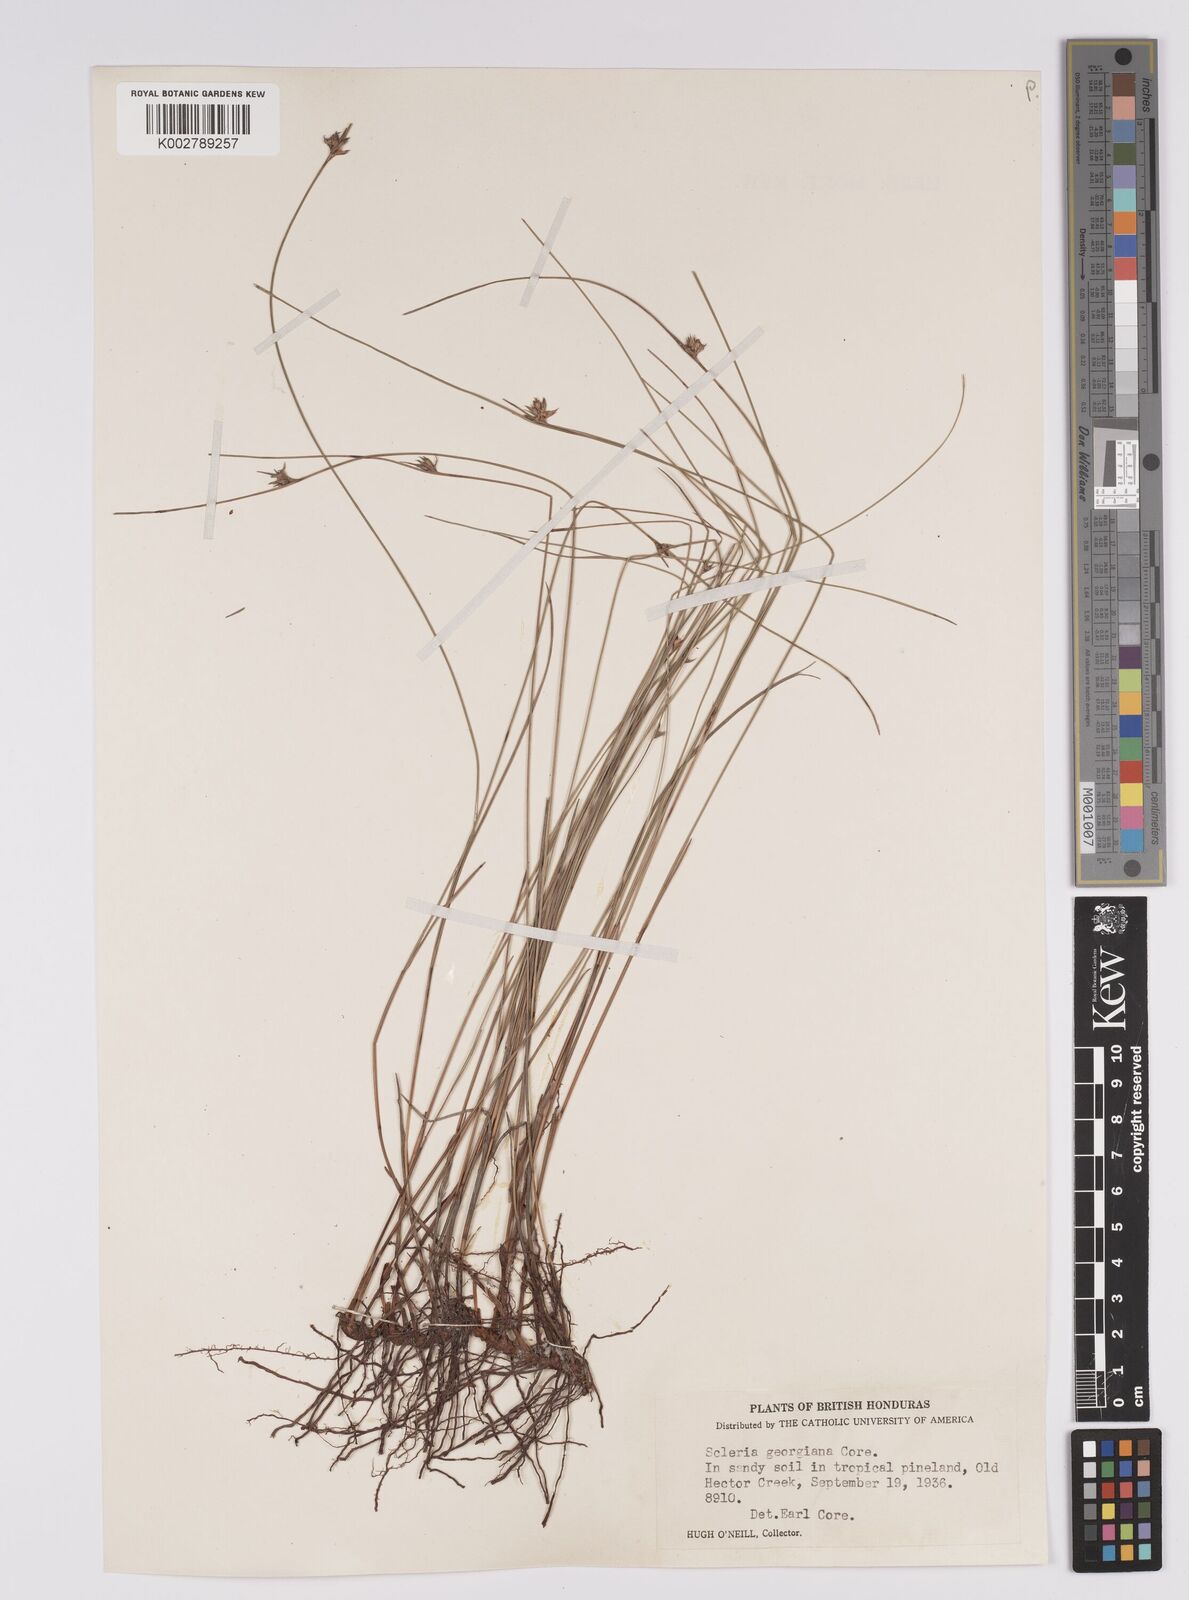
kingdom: Plantae
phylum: Tracheophyta
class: Liliopsida
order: Poales
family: Cyperaceae
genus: Scleria
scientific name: Scleria georgiana
